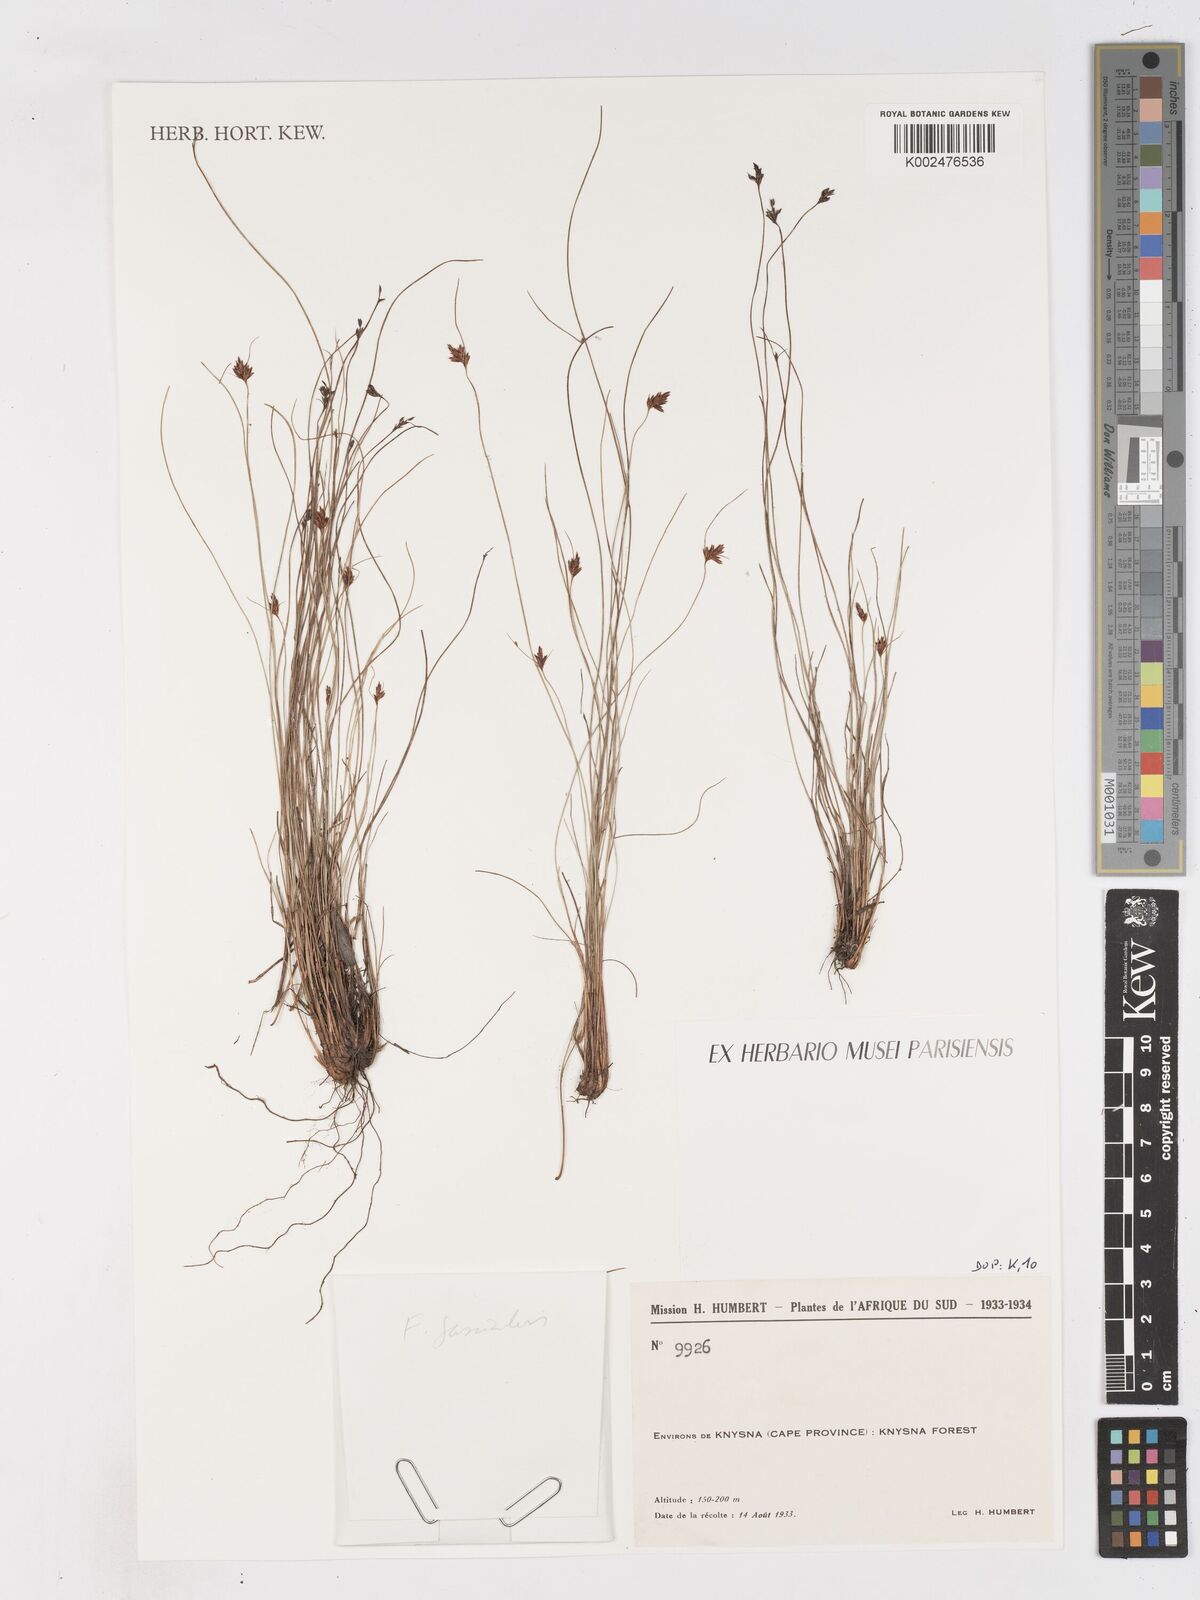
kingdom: Plantae
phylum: Tracheophyta
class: Liliopsida
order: Poales
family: Cyperaceae
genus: Ficinia
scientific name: Ficinia
